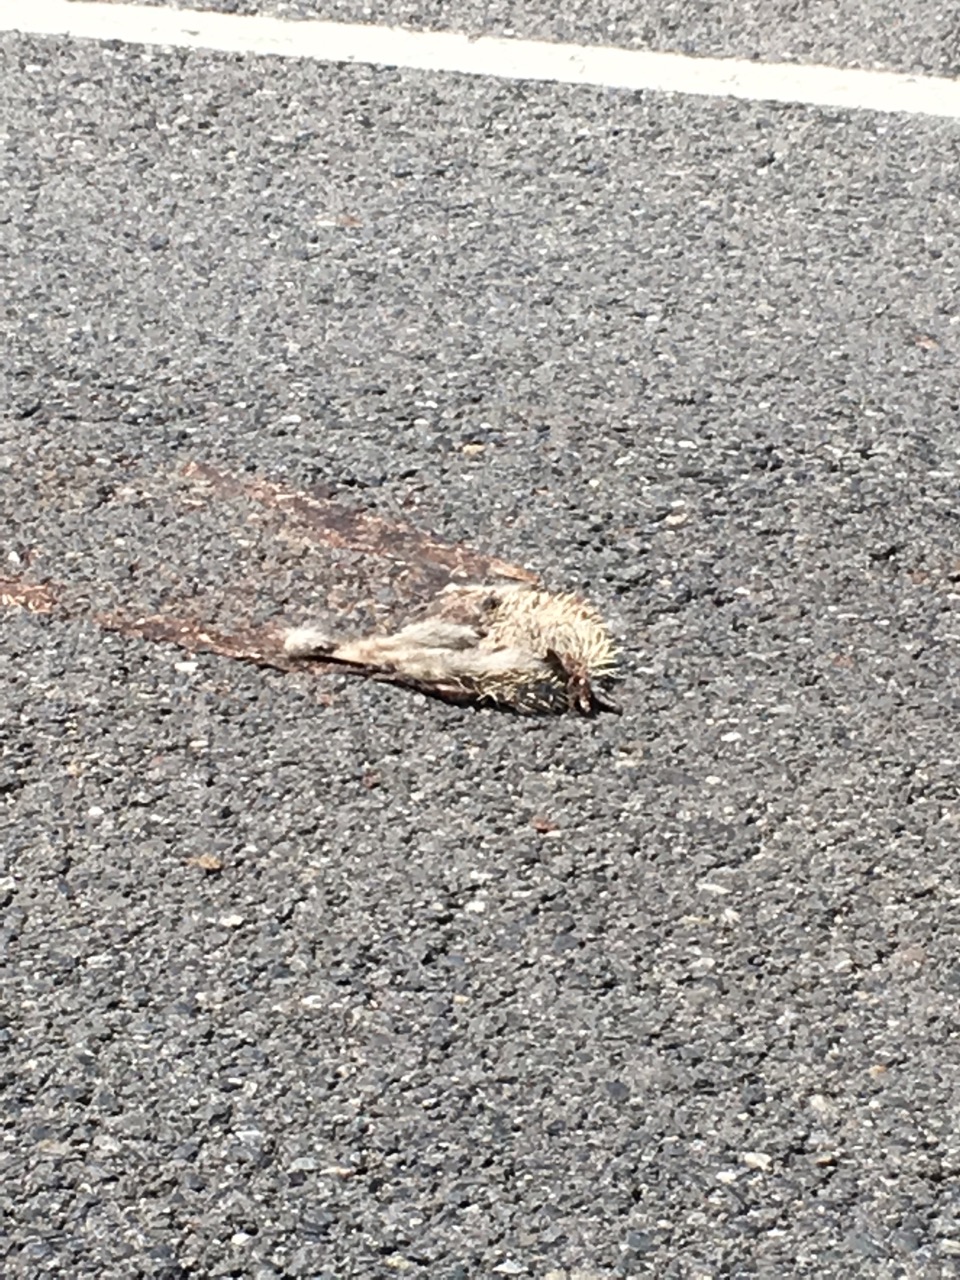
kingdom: Animalia
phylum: Chordata
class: Mammalia
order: Erinaceomorpha
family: Erinaceidae
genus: Erinaceus
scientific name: Erinaceus
